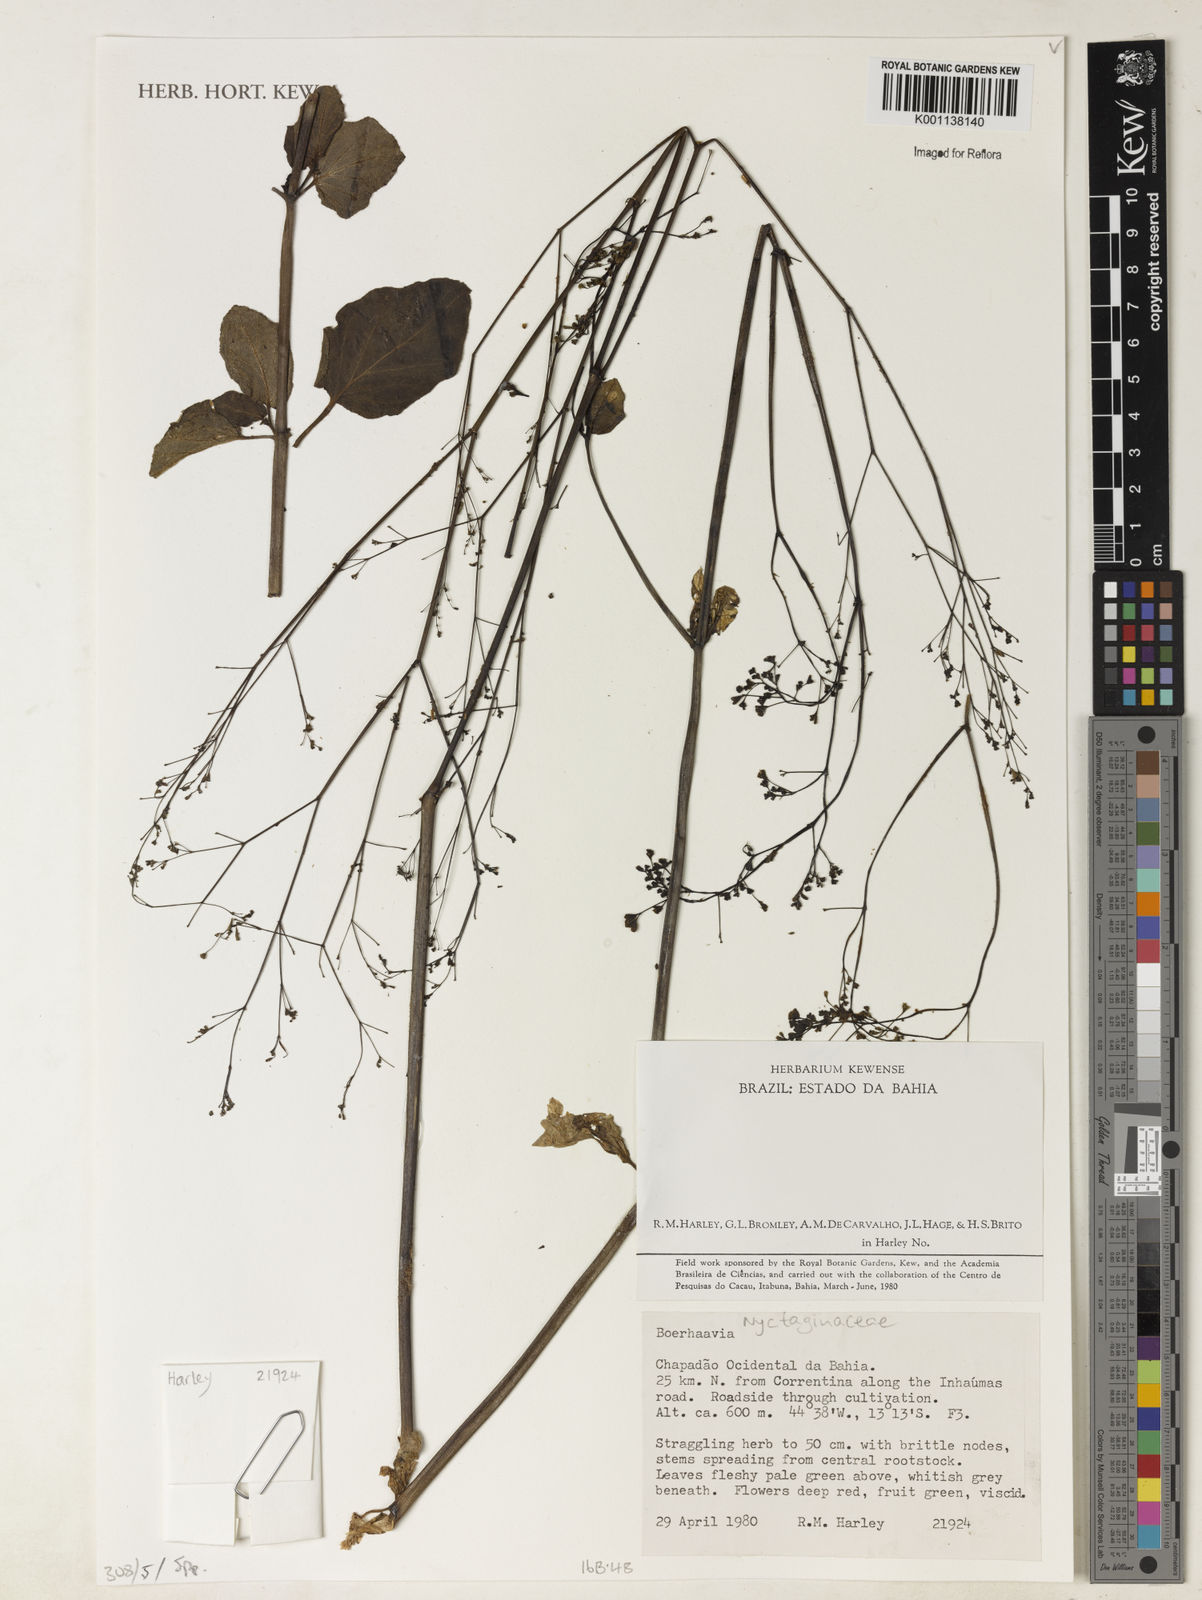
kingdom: Plantae
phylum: Tracheophyta
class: Magnoliopsida
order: Caryophyllales
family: Nyctaginaceae
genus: Boerhavia
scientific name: Boerhavia
